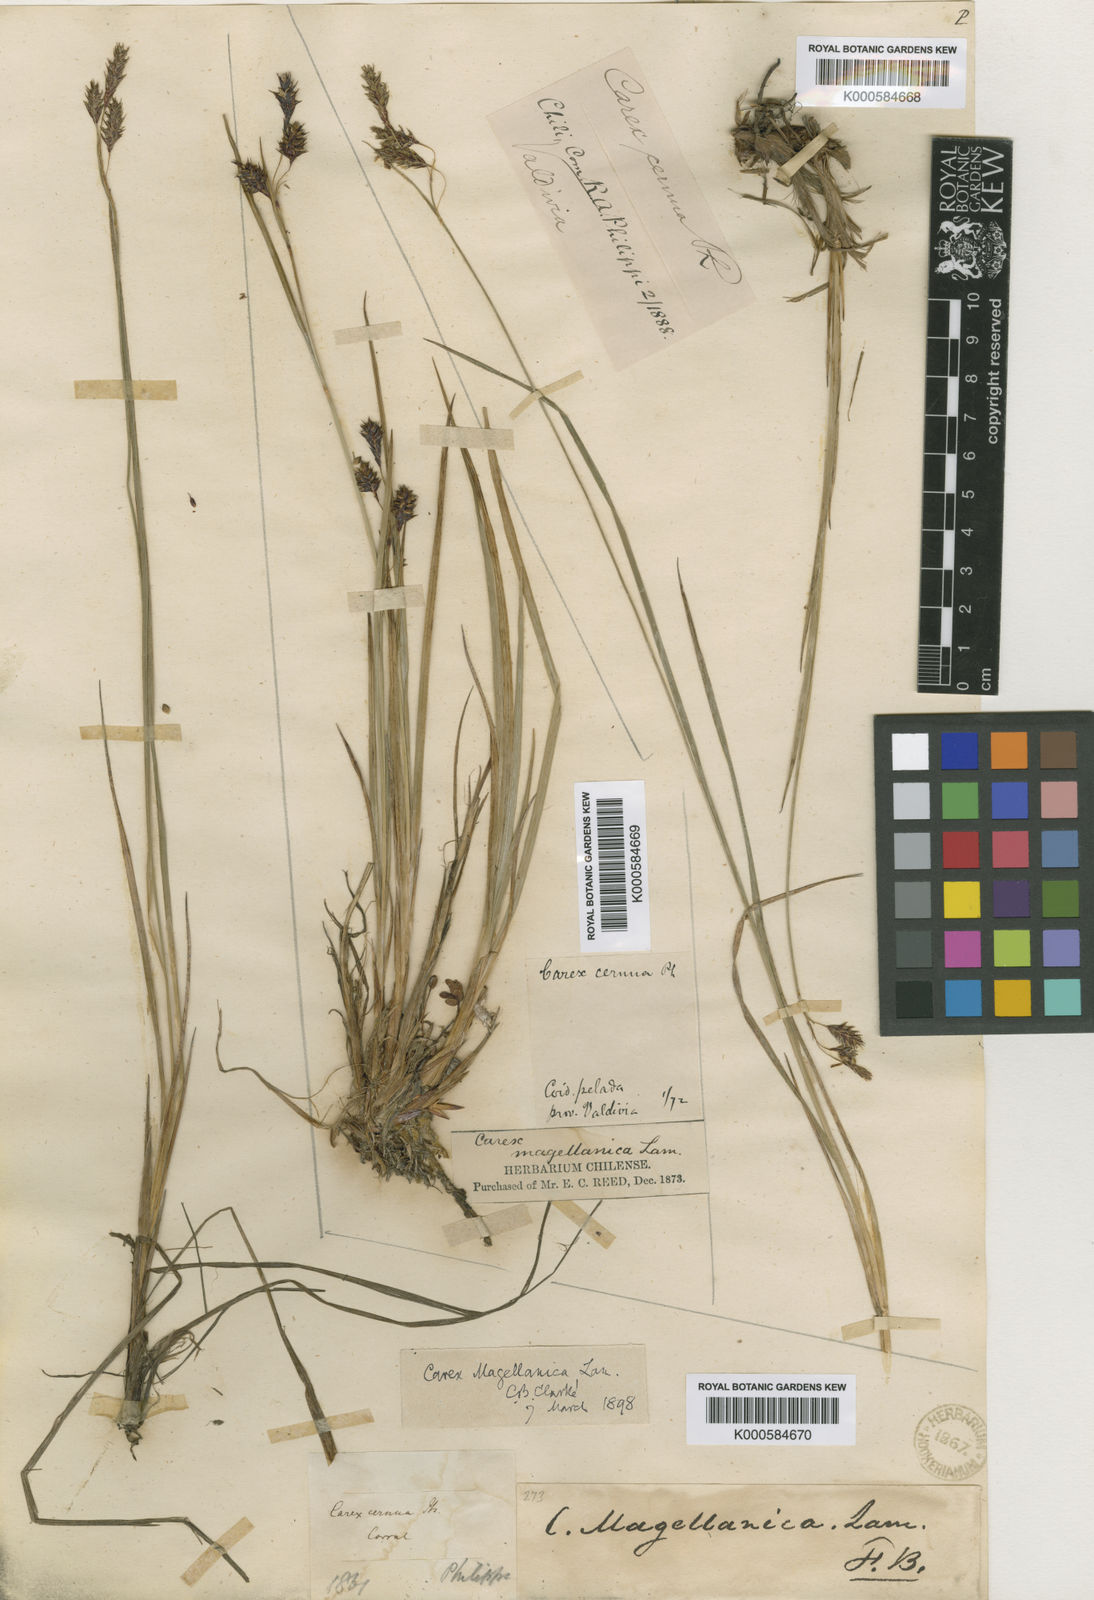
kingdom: Plantae
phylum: Tracheophyta
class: Liliopsida
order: Poales
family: Cyperaceae
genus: Carex
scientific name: Carex magellanica
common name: Bog sedge
